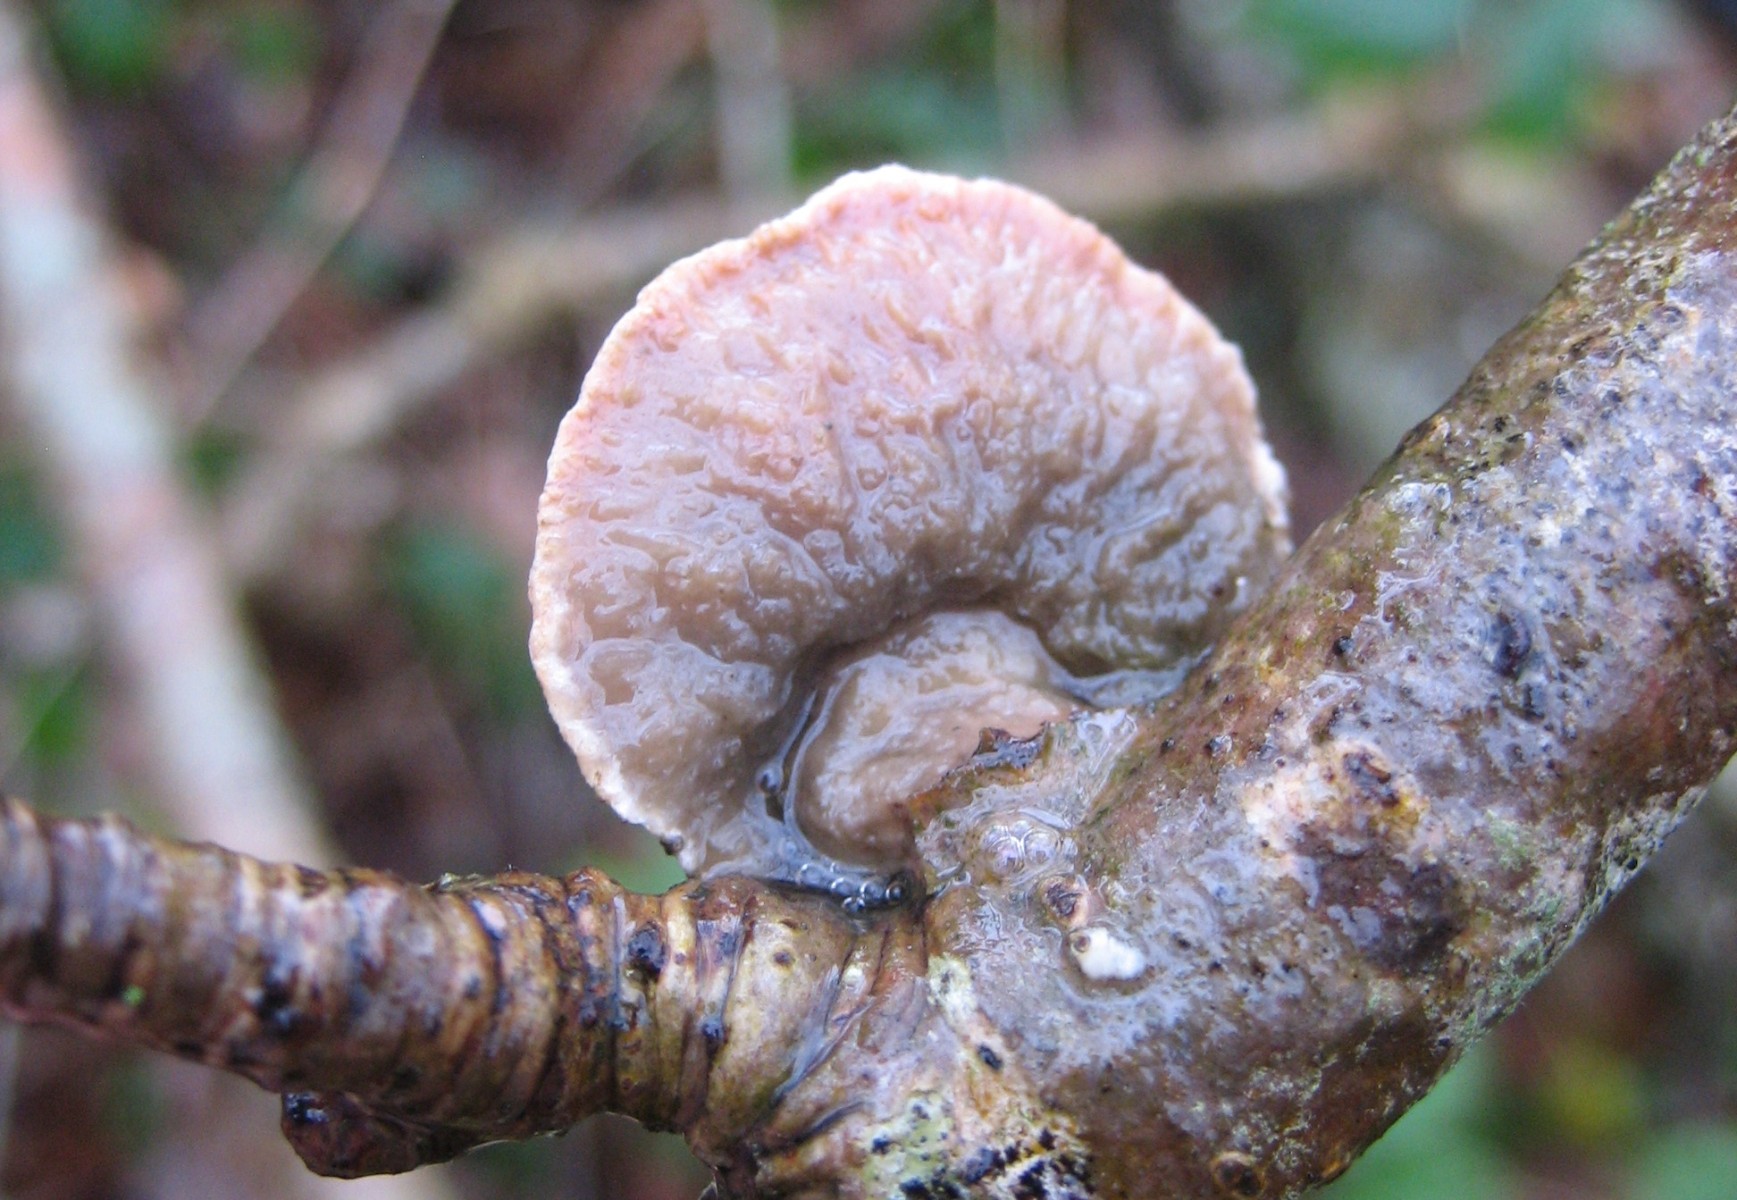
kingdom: Fungi
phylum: Basidiomycota
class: Agaricomycetes
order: Polyporales
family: Phanerochaetaceae
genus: Hapalopilus
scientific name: Hapalopilus rutilans
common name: rødlig okkerporesvamp
